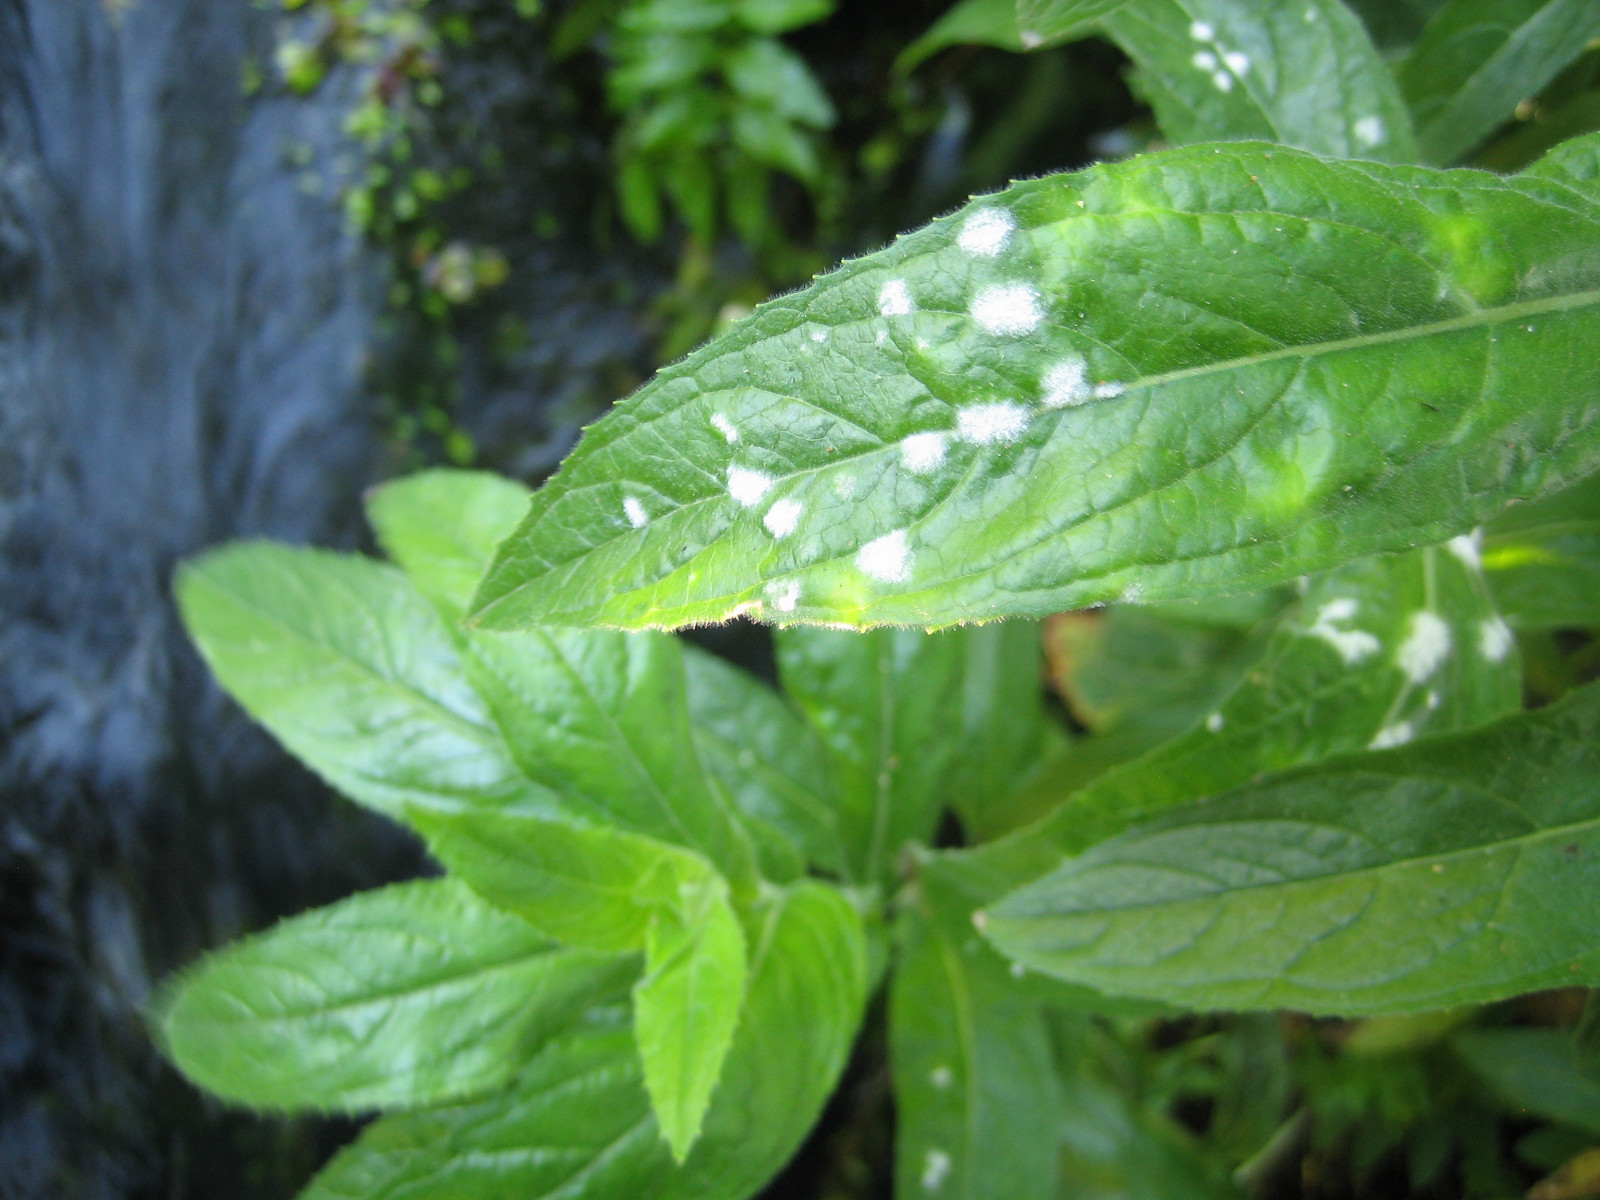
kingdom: Fungi
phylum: Ascomycota
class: Leotiomycetes
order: Helotiales
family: Erysiphaceae
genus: Podosphaera
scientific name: Podosphaera epilobii
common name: dueurt-meldug
